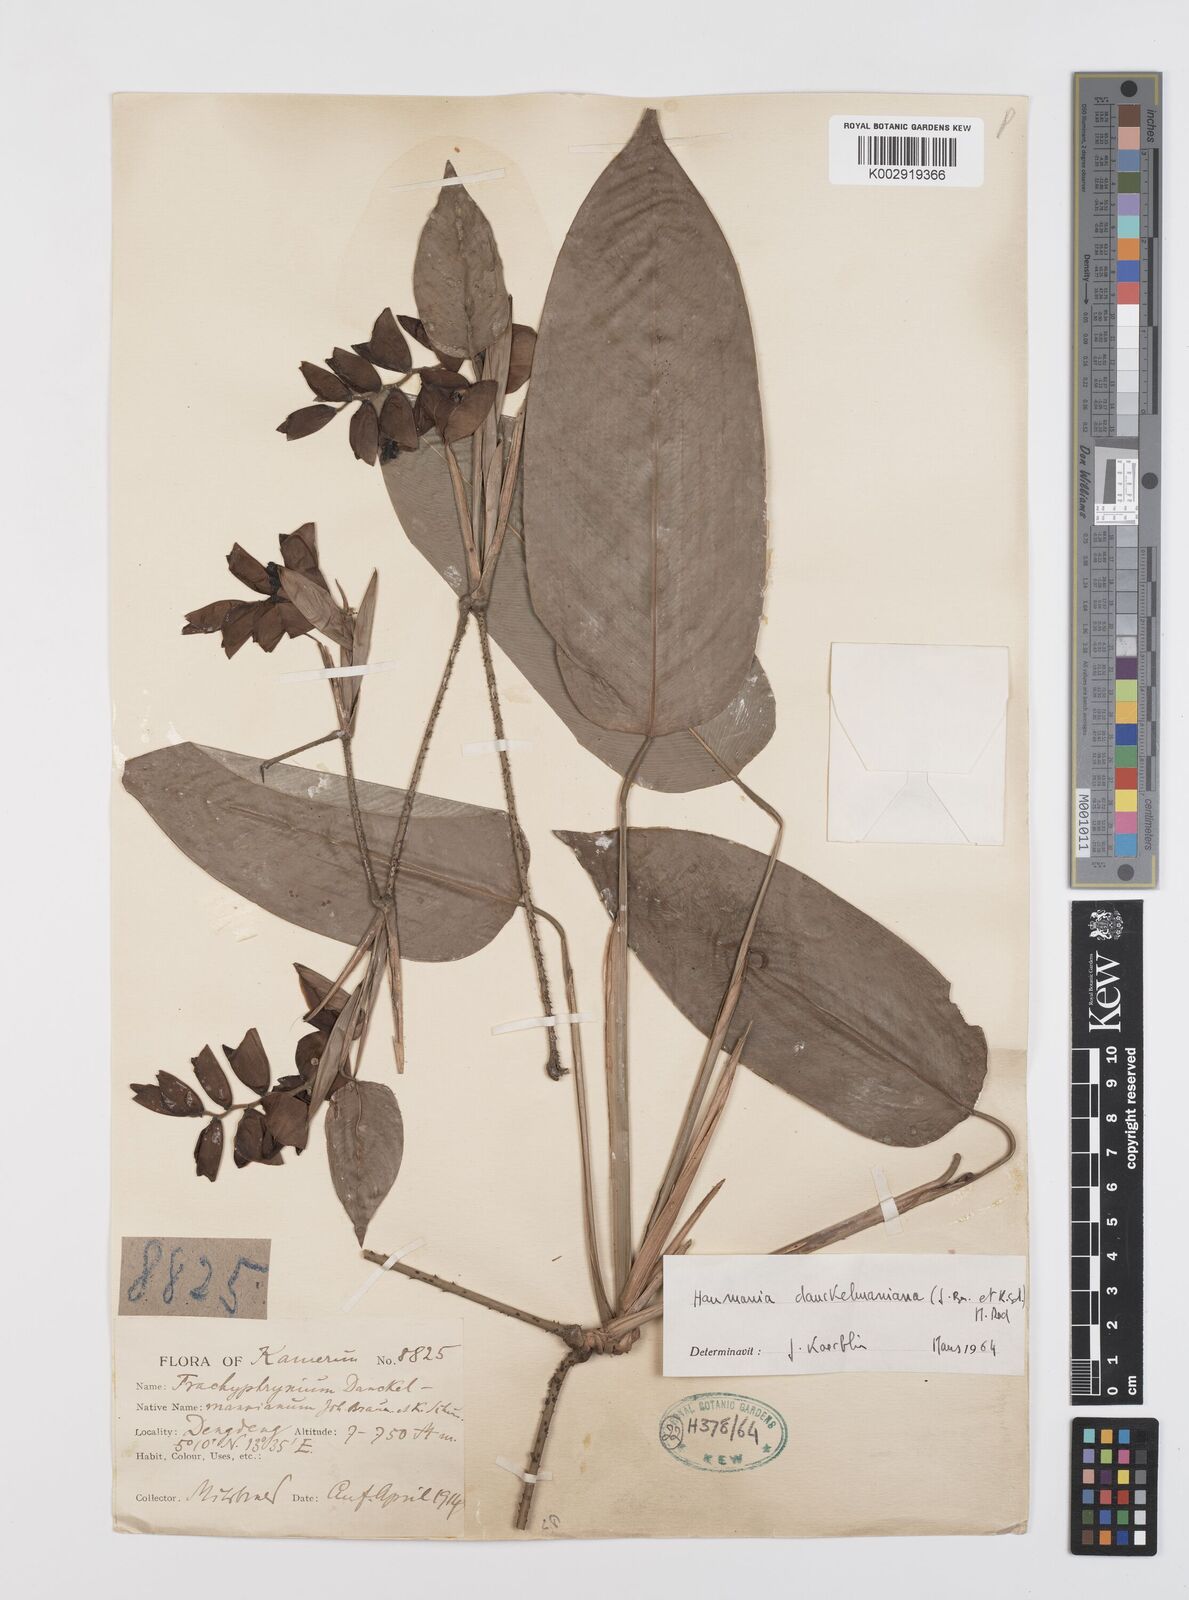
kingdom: Plantae
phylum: Tracheophyta
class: Liliopsida
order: Zingiberales
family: Marantaceae
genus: Haumania
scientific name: Haumania danckelmaniana
